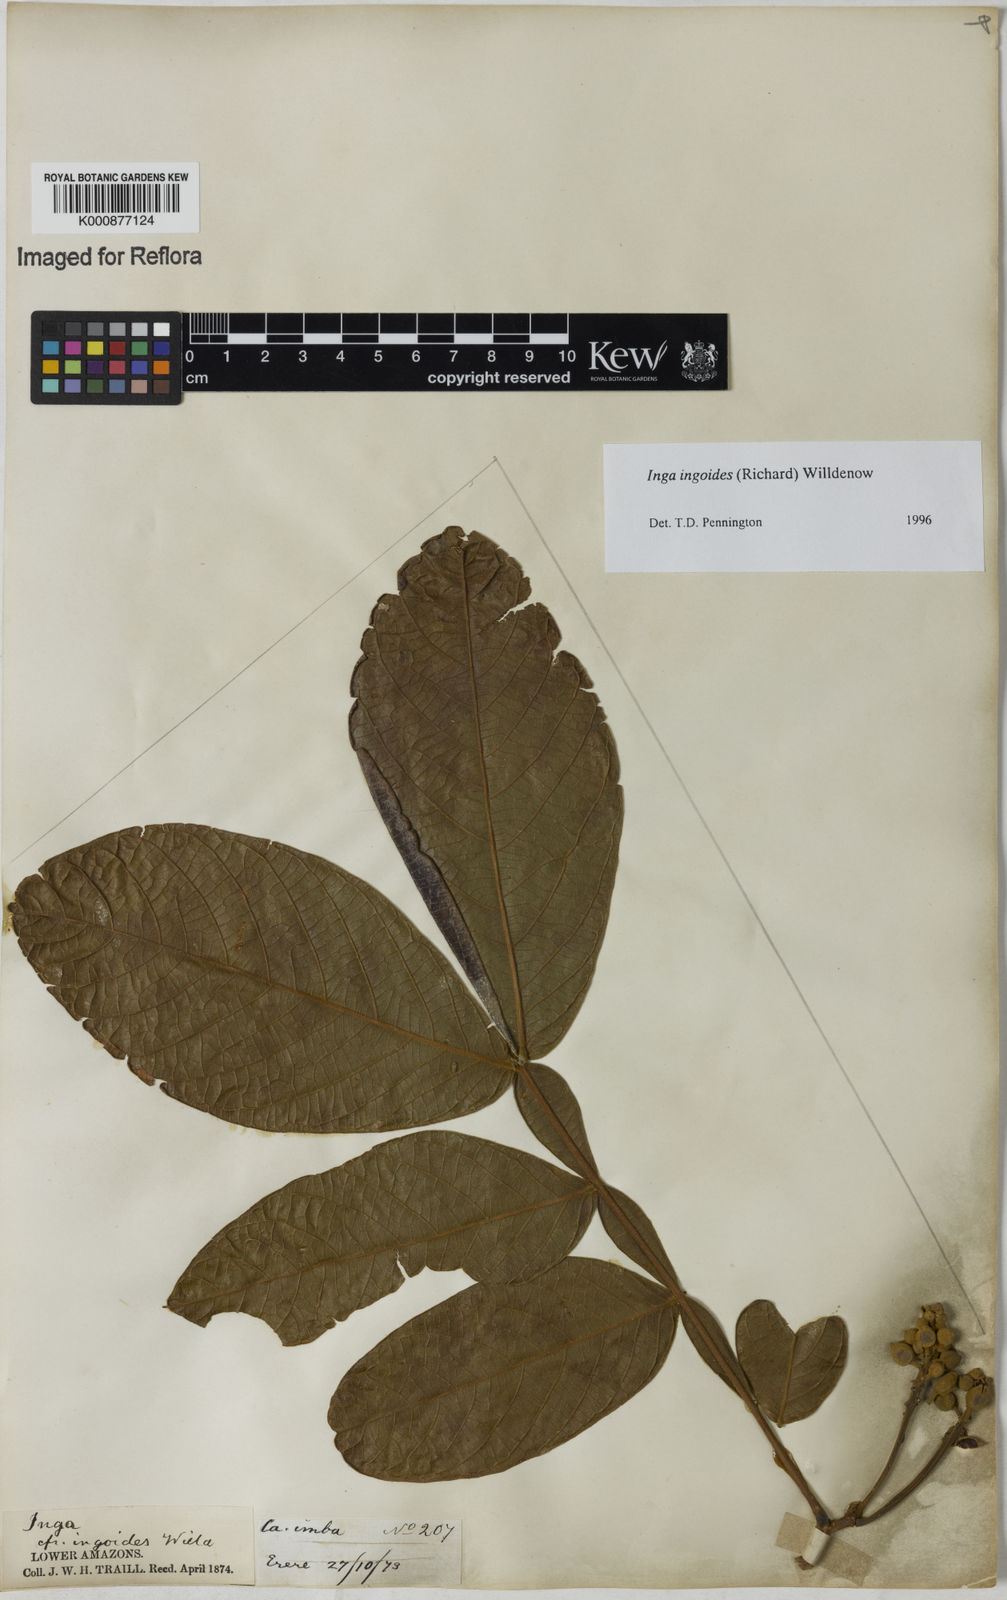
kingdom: Plantae
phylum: Tracheophyta
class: Magnoliopsida
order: Fabales
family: Fabaceae
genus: Inga
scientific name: Inga ingoides
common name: Spanish ash
